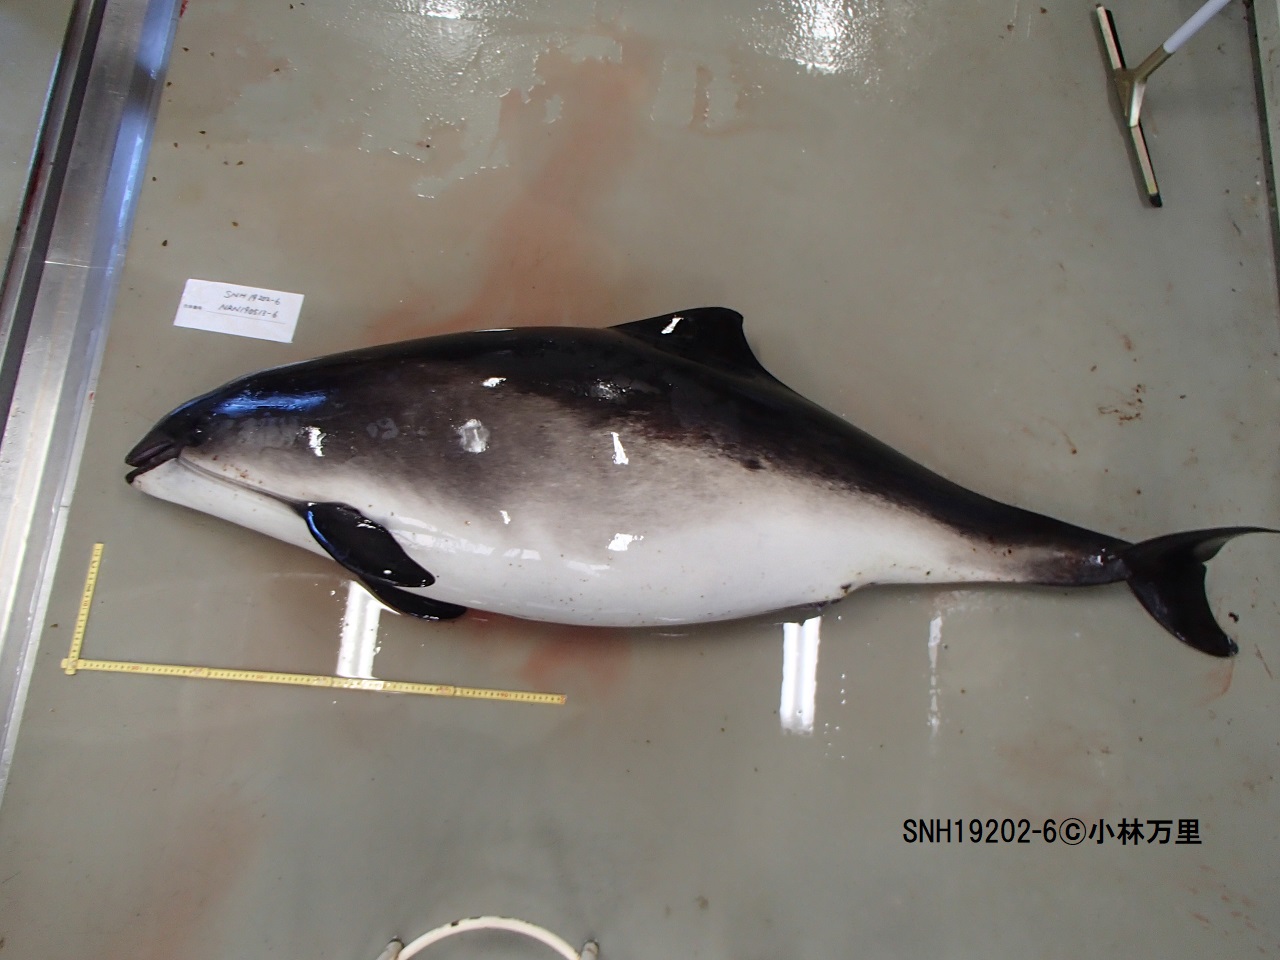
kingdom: Animalia
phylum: Chordata
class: Mammalia
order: Cetacea
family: Phocoenidae
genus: Phocoena
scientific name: Phocoena phocoena
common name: Harbour porpoise
